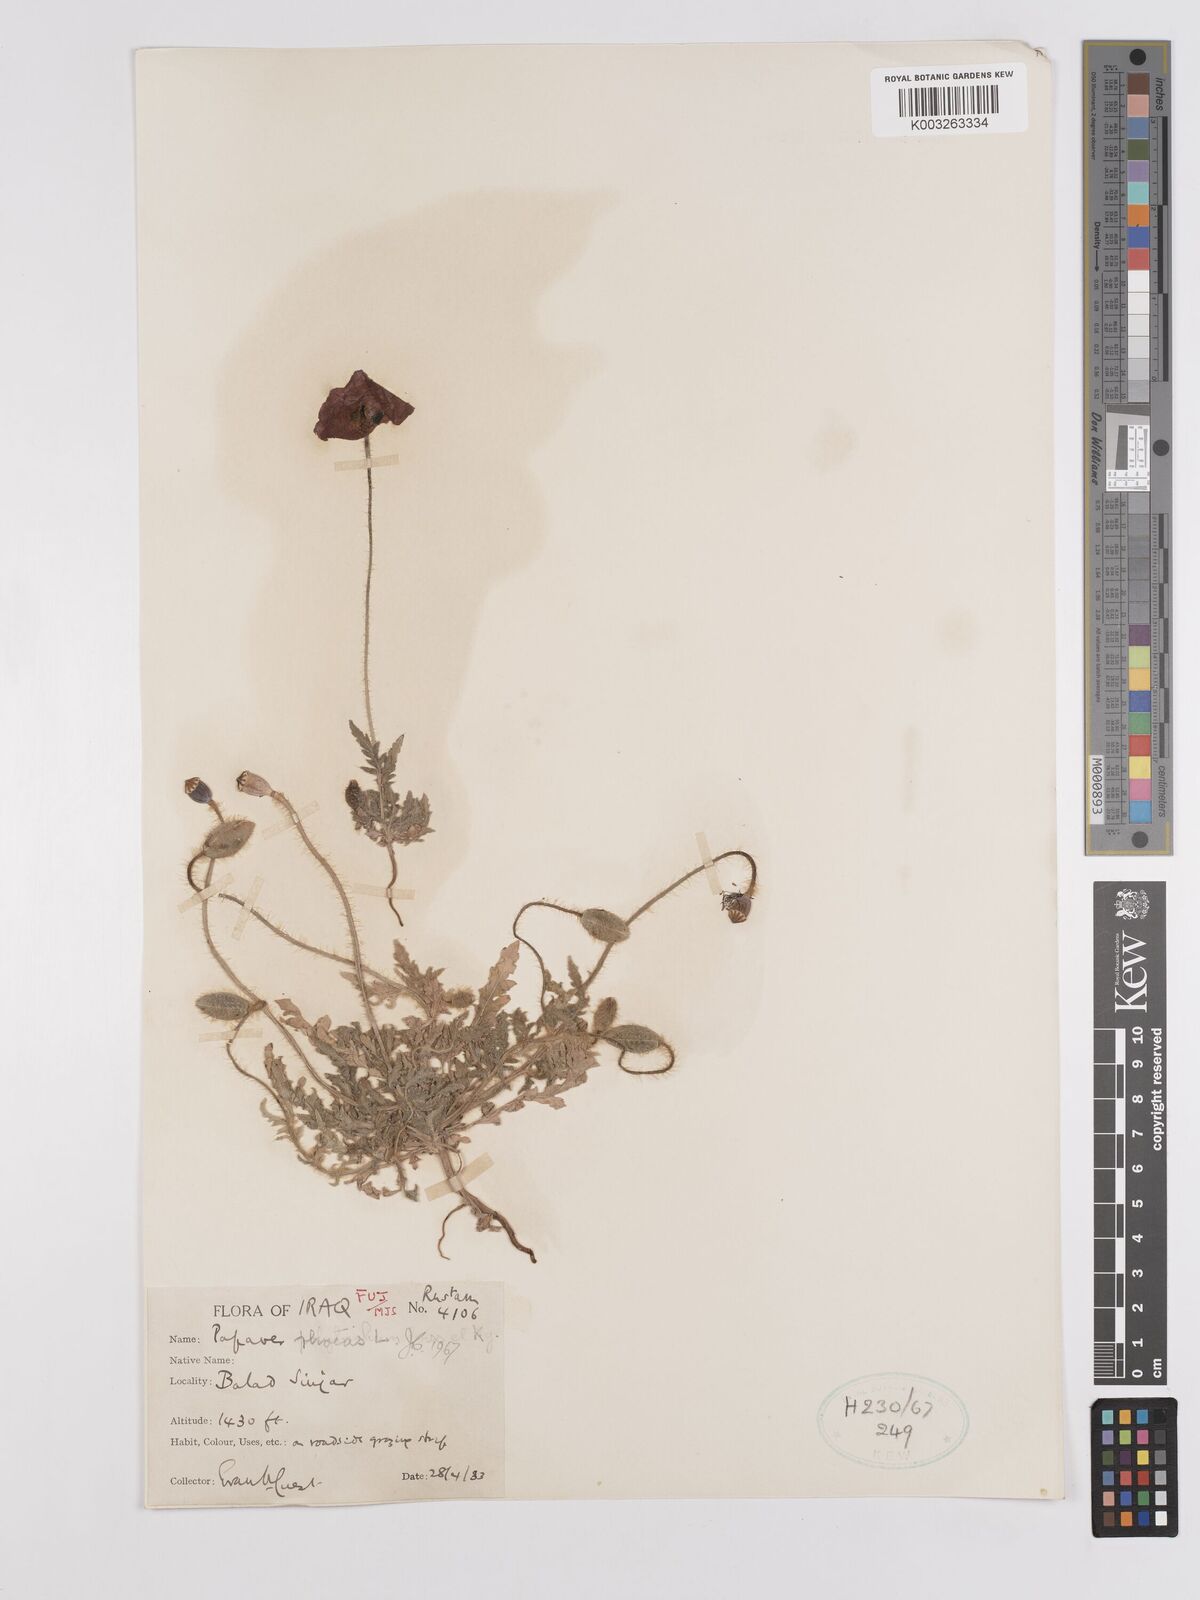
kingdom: Plantae
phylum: Tracheophyta
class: Magnoliopsida
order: Ranunculales
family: Papaveraceae
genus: Papaver
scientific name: Papaver rhoeas
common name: Corn poppy
